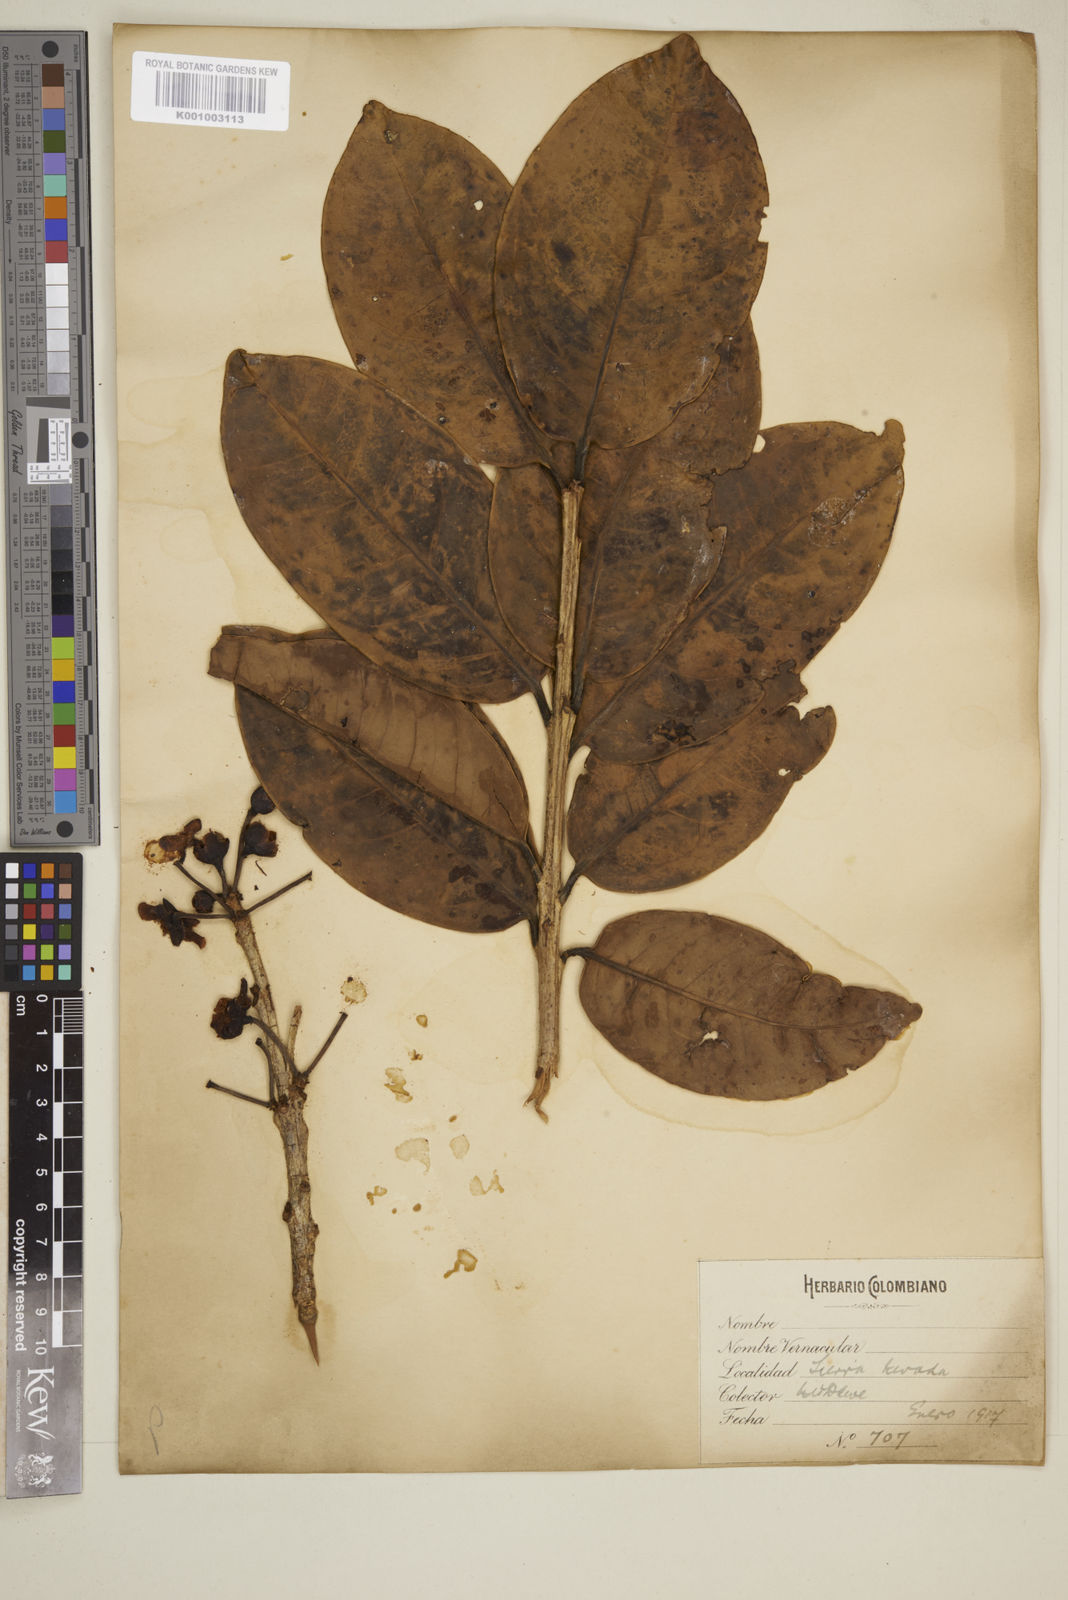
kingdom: Plantae
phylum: Tracheophyta
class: Magnoliopsida
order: Myrtales
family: Myrtaceae
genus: Eugenia
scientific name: Eugenia
